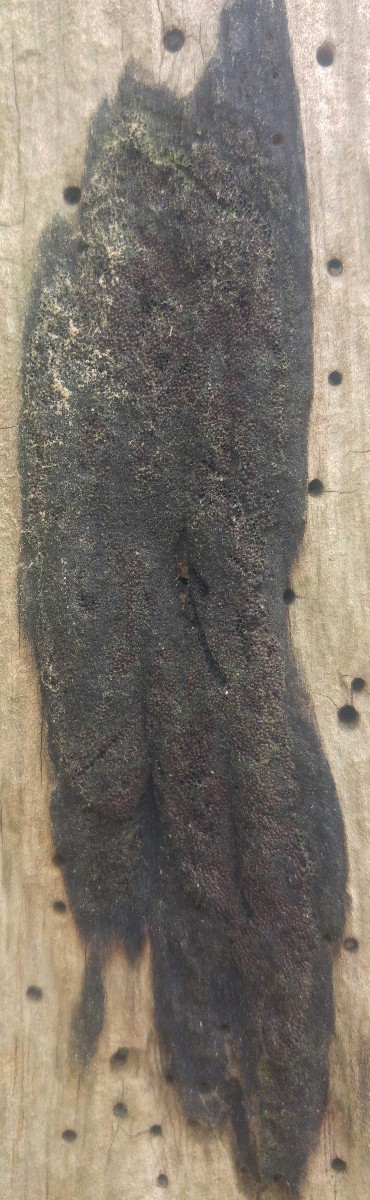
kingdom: Fungi
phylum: Ascomycota
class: Sordariomycetes
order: Xylariales
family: Hypoxylaceae
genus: Hypoxylon
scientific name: Hypoxylon
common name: kulbær
